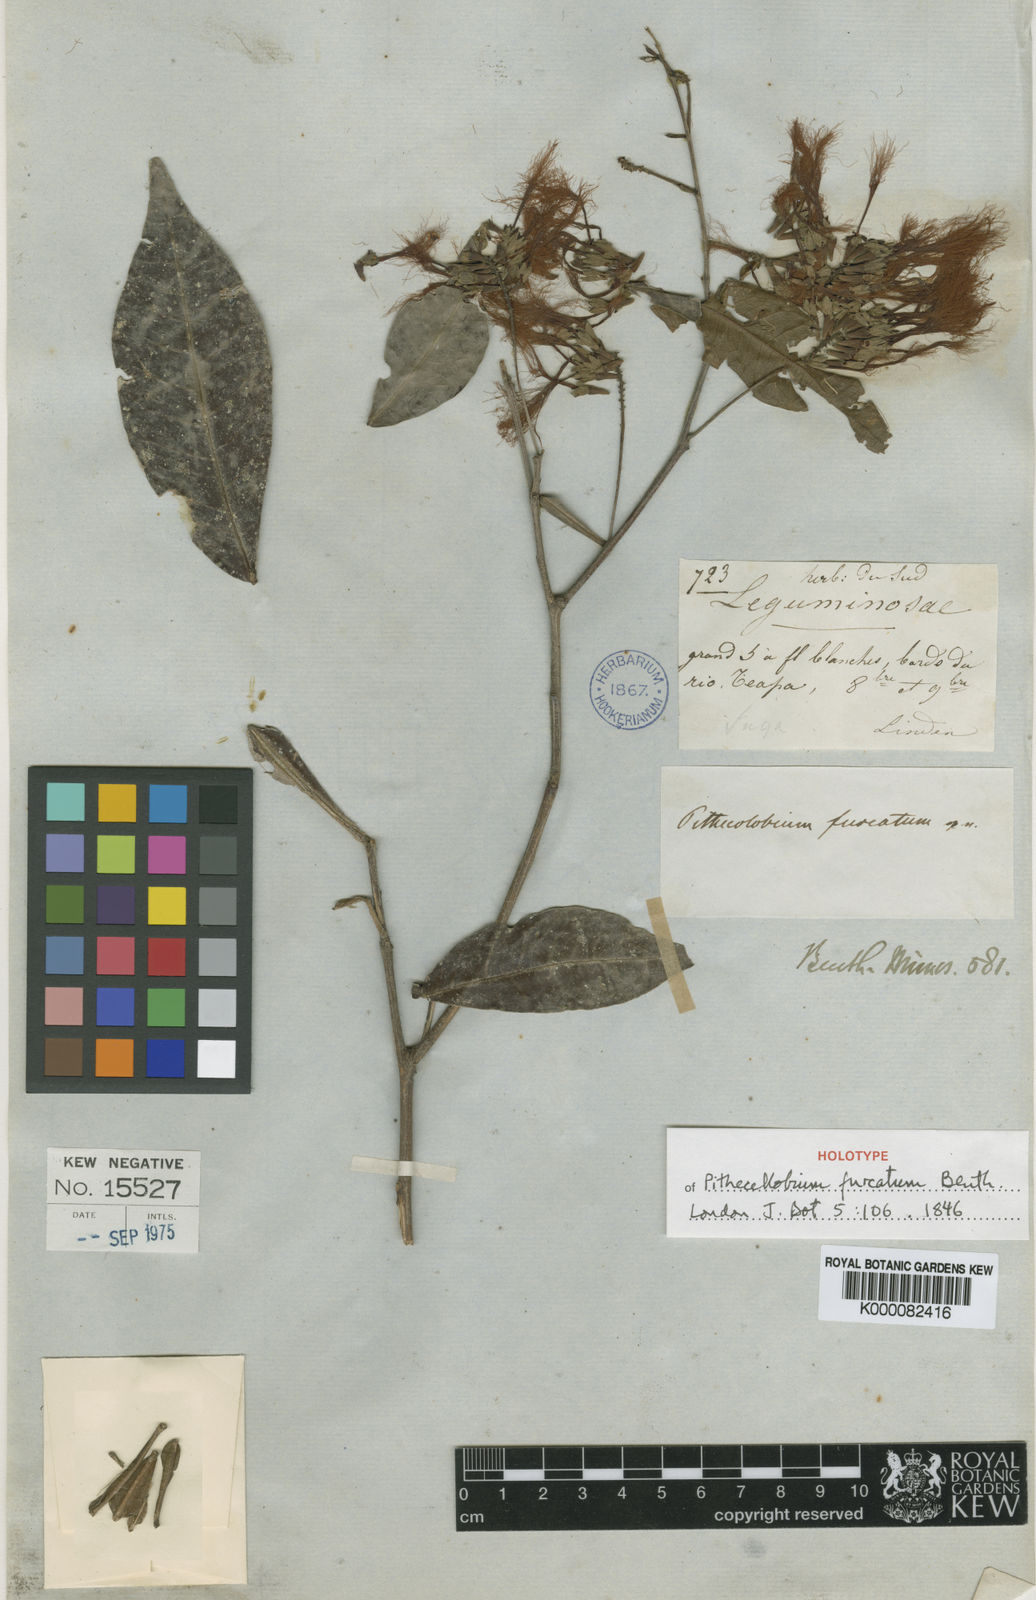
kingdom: Plantae
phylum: Tracheophyta
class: Magnoliopsida
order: Fabales
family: Fabaceae
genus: Pithecellobium
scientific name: Pithecellobium furcatum
